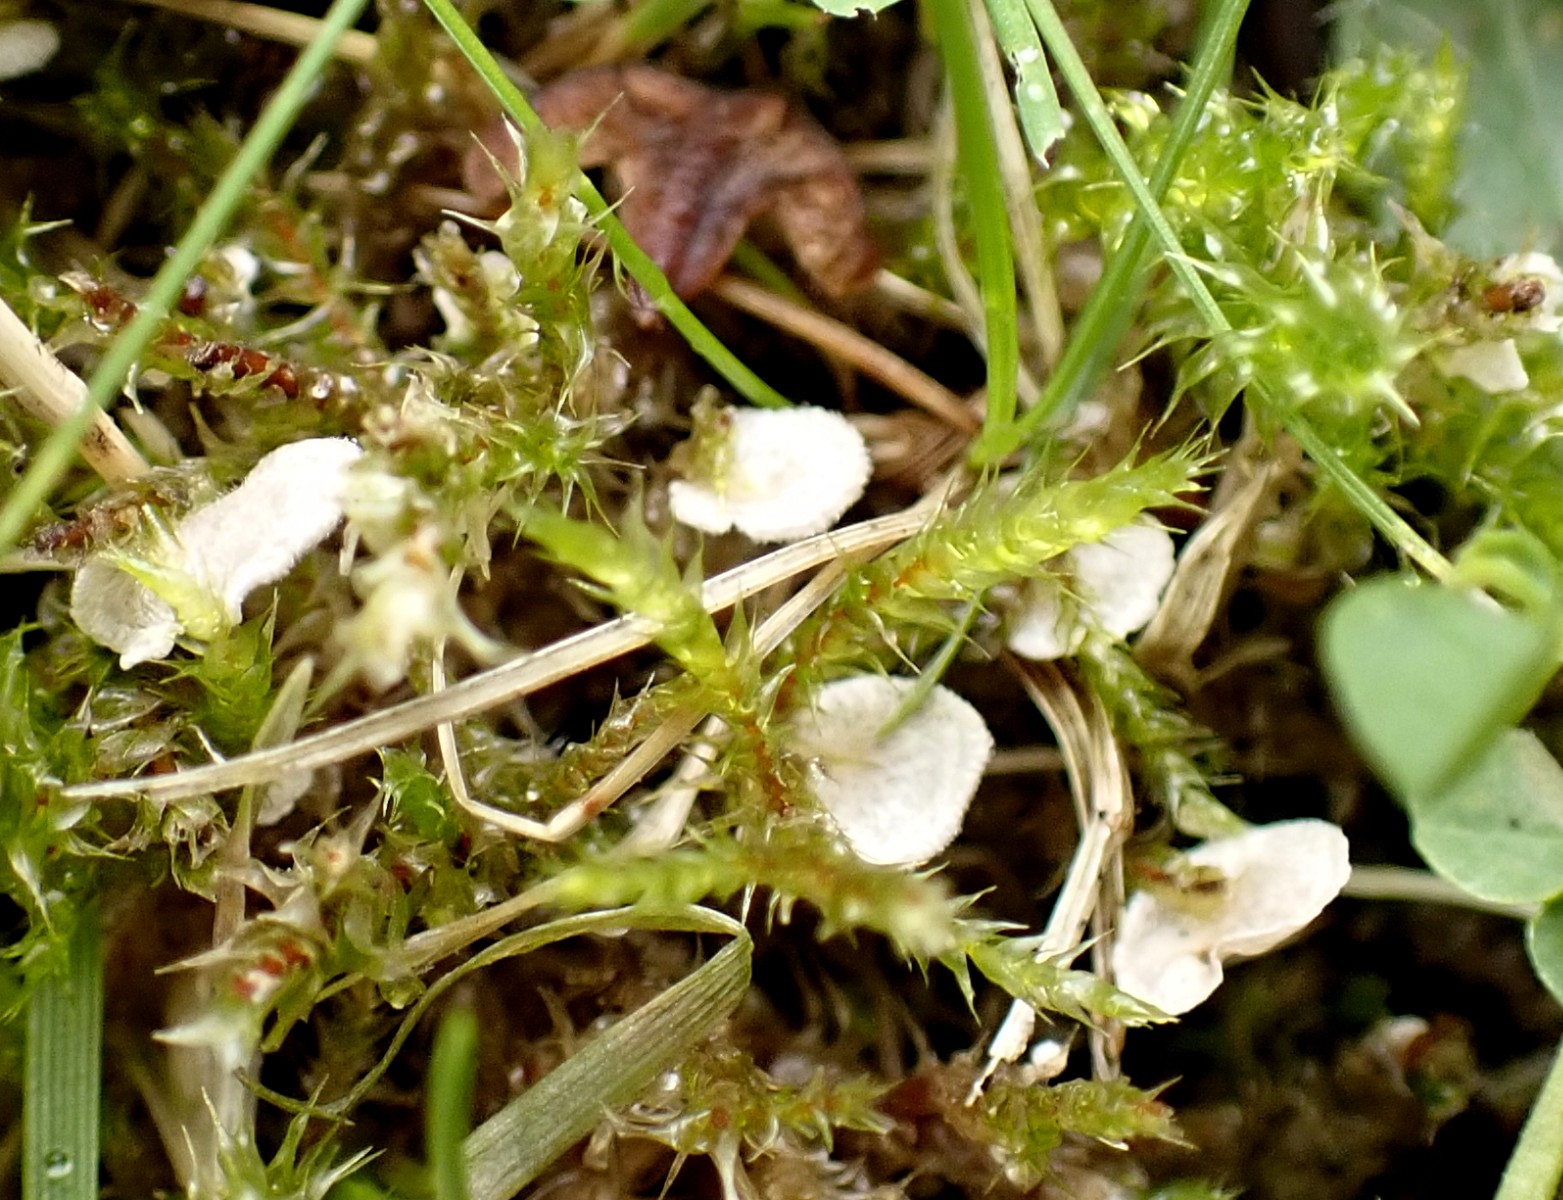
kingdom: Fungi
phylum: Basidiomycota
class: Agaricomycetes
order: Agaricales
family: Hygrophoraceae
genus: Arrhenia
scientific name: Arrhenia retiruga
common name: lille fontænehat
